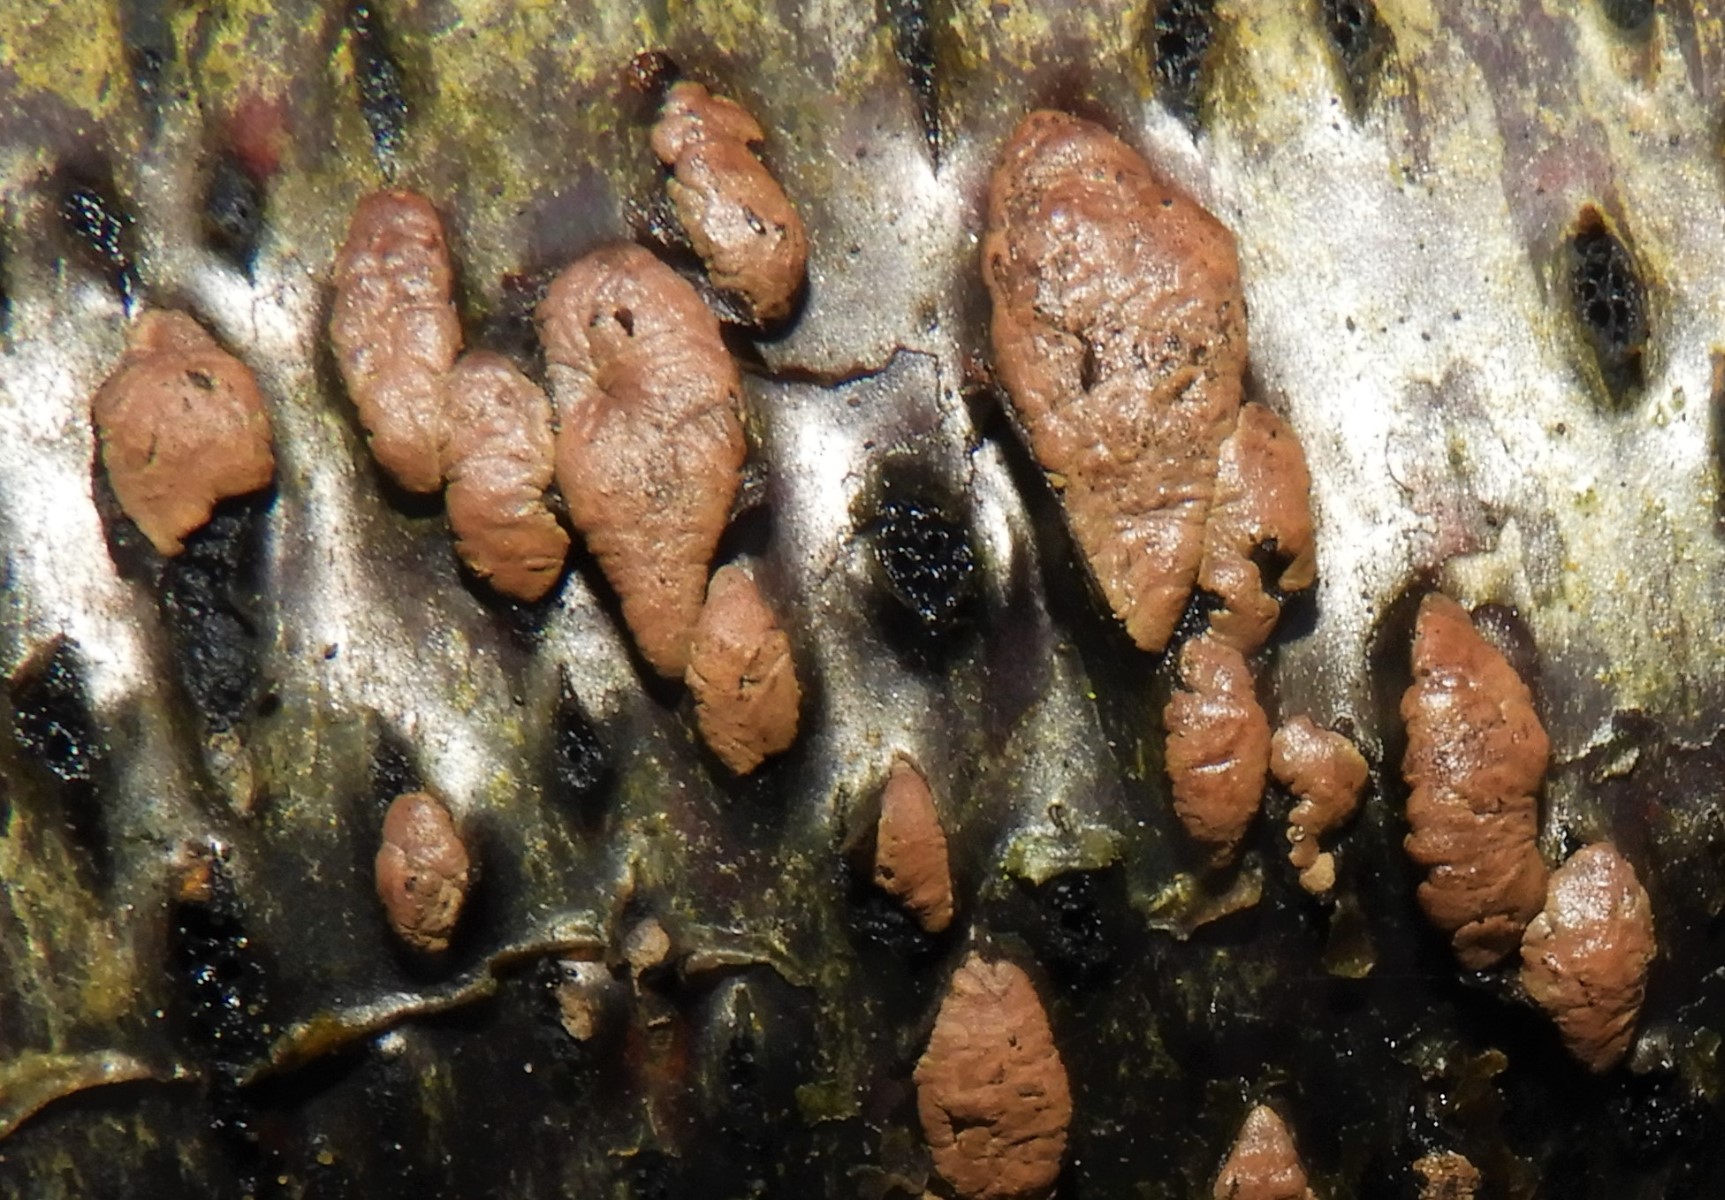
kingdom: Fungi
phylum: Ascomycota
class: Sordariomycetes
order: Xylariales
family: Hypoxylaceae
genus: Jackrogersella
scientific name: Jackrogersella multiformis
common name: foranderlig kulbær
